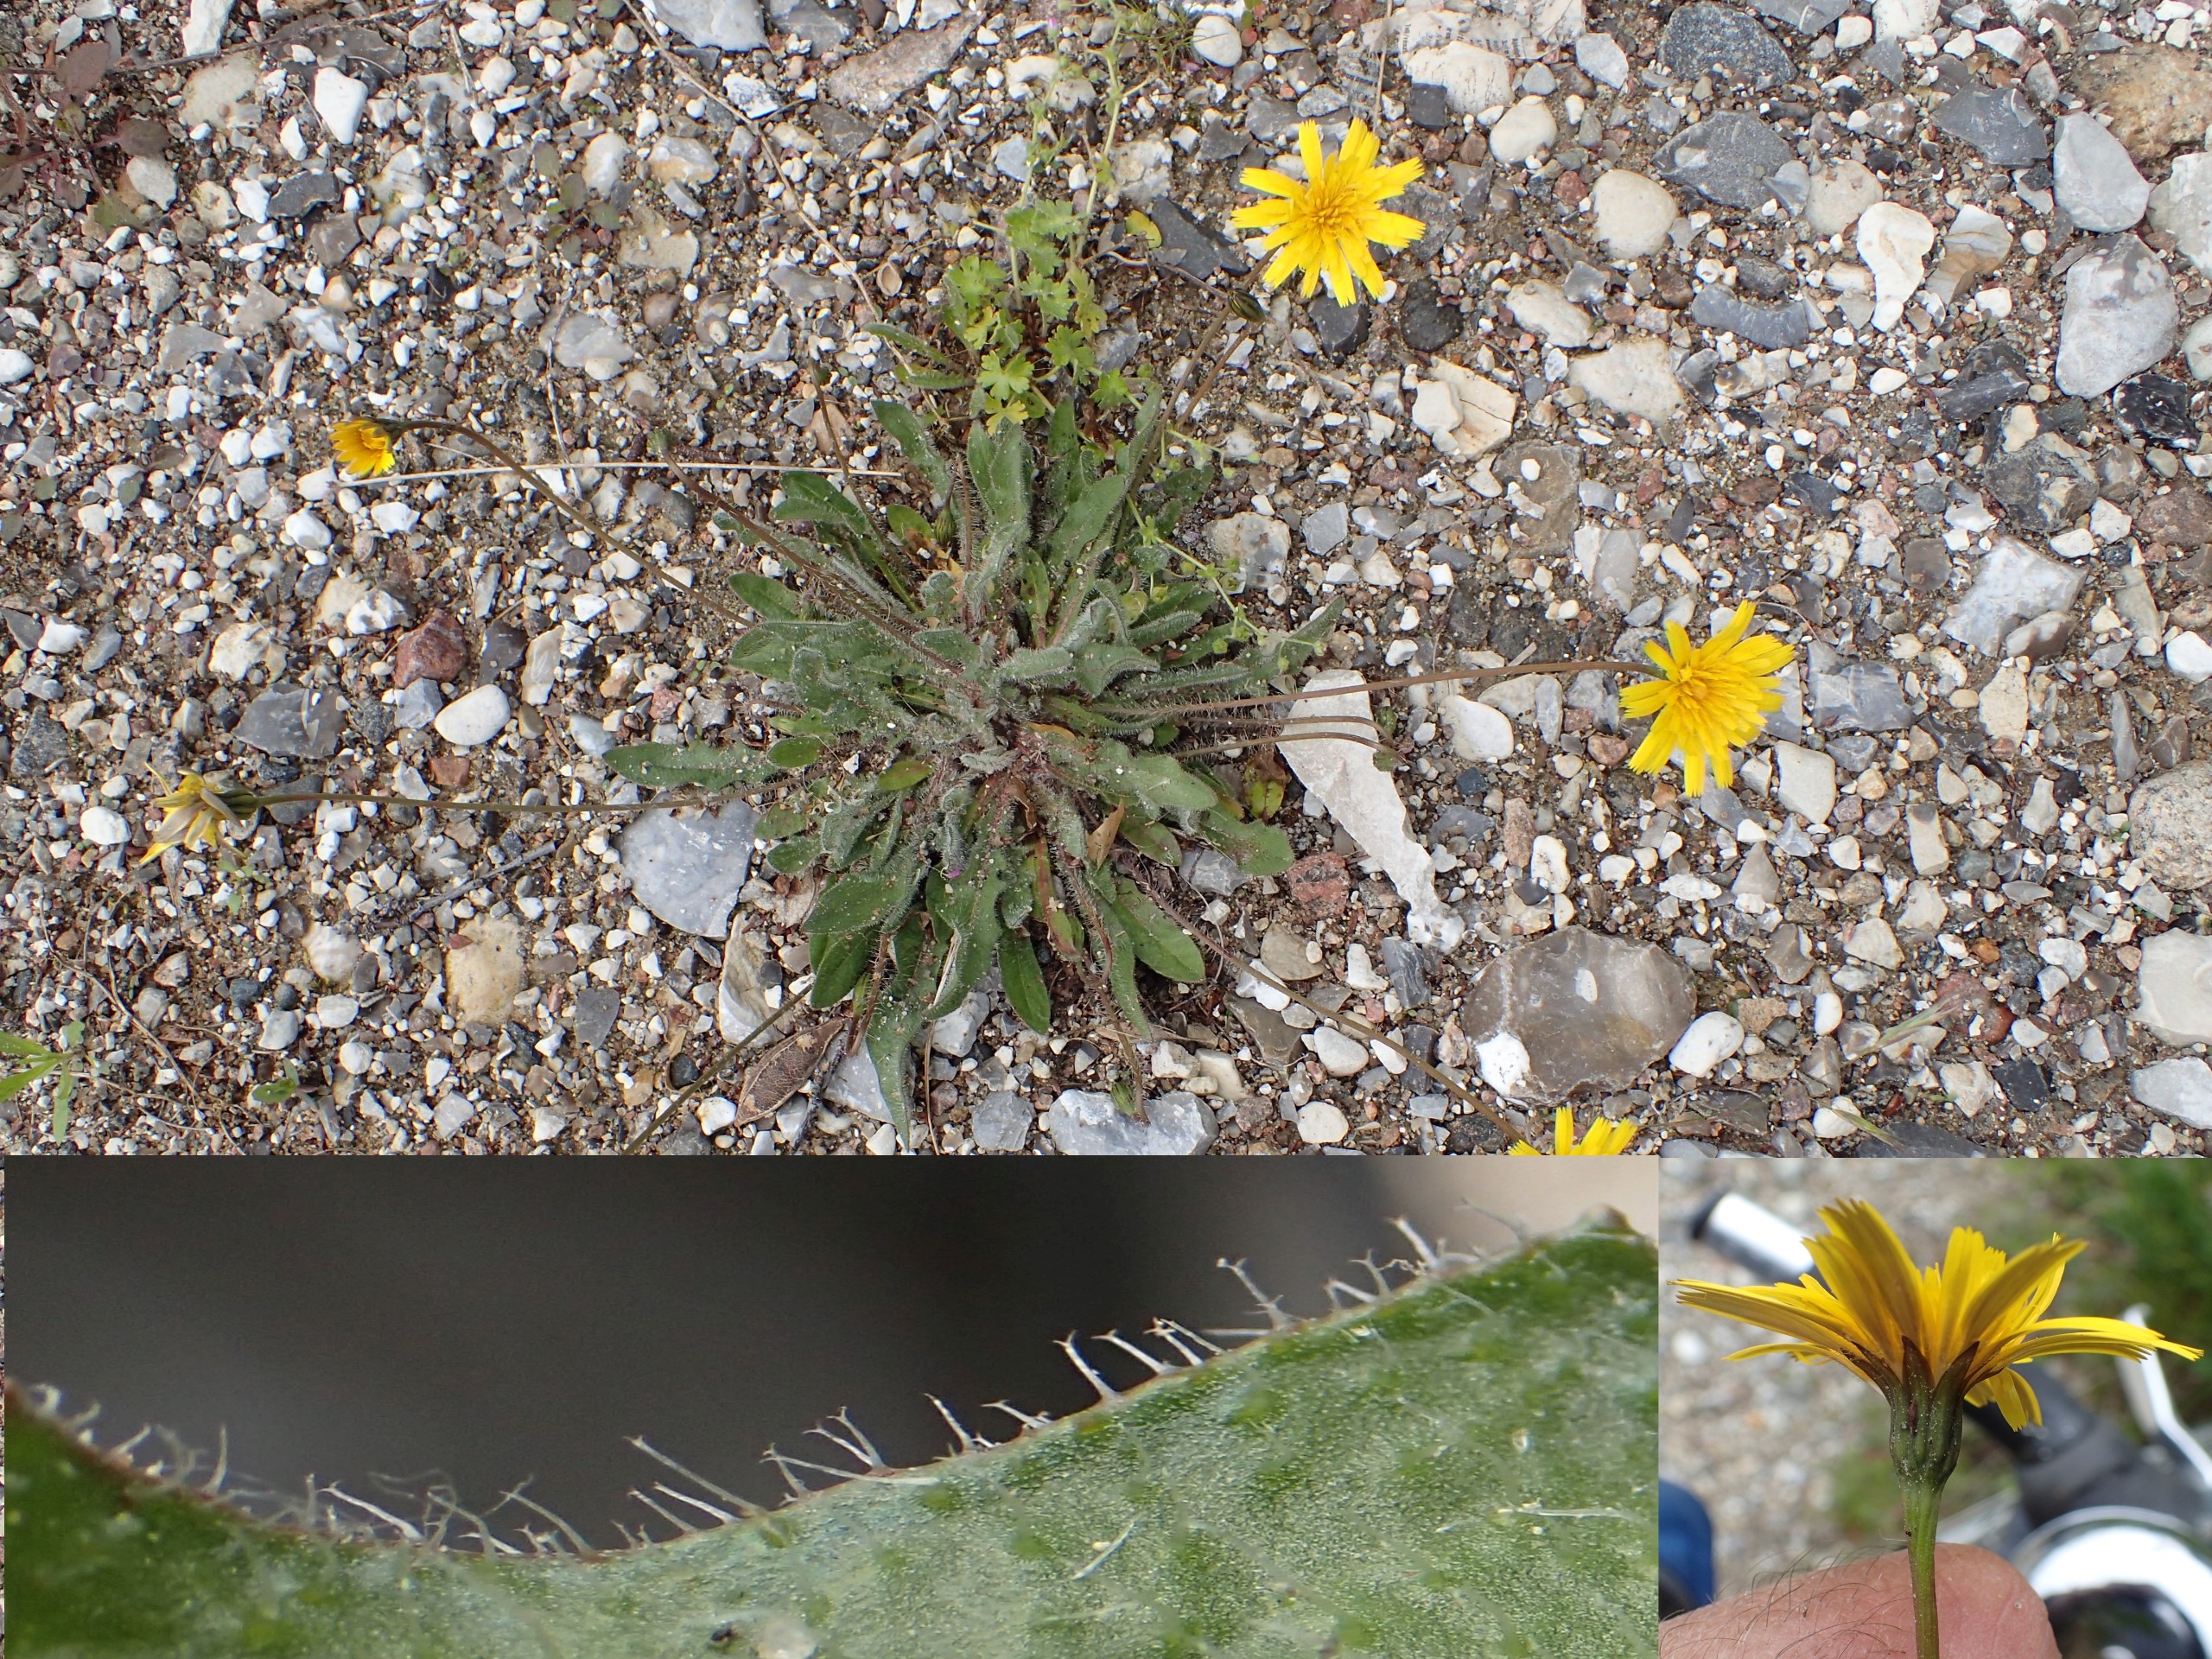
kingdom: Plantae
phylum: Tracheophyta
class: Magnoliopsida
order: Asterales
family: Asteraceae
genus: Thrincia
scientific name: Thrincia saxatilis
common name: Hundesalat
